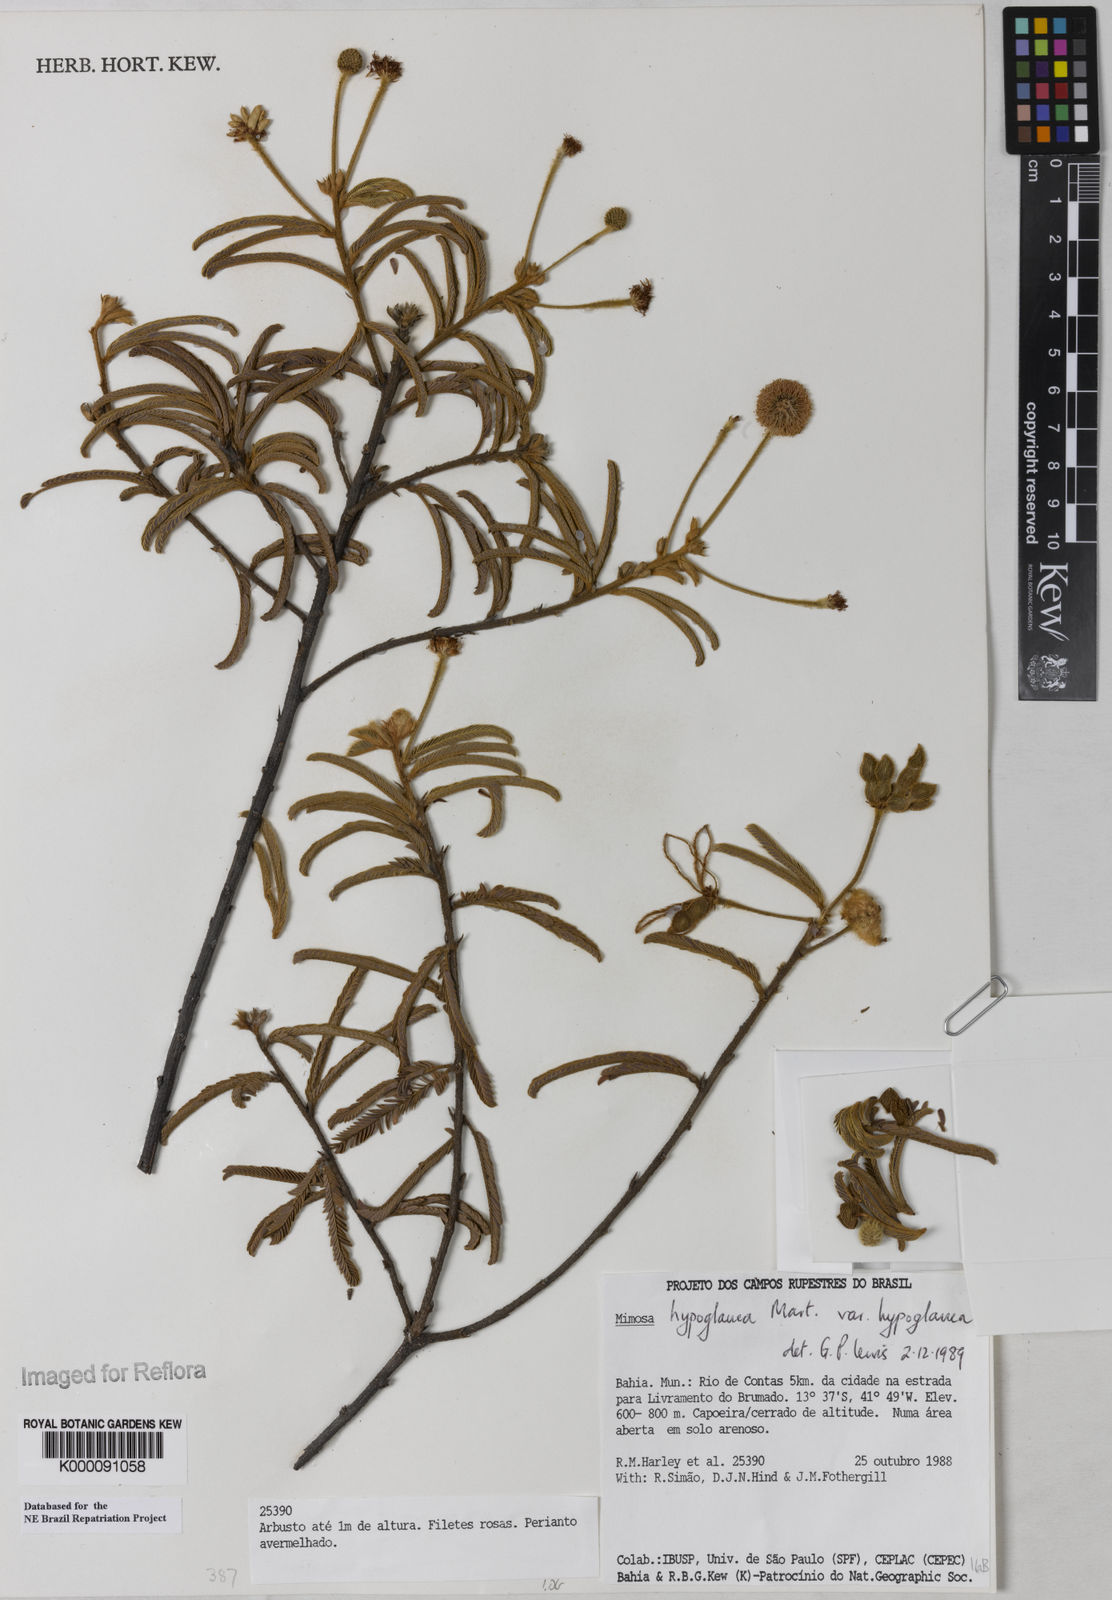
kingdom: Plantae
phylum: Tracheophyta
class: Magnoliopsida
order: Fabales
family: Fabaceae
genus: Mimosa
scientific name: Mimosa hypoglauca
